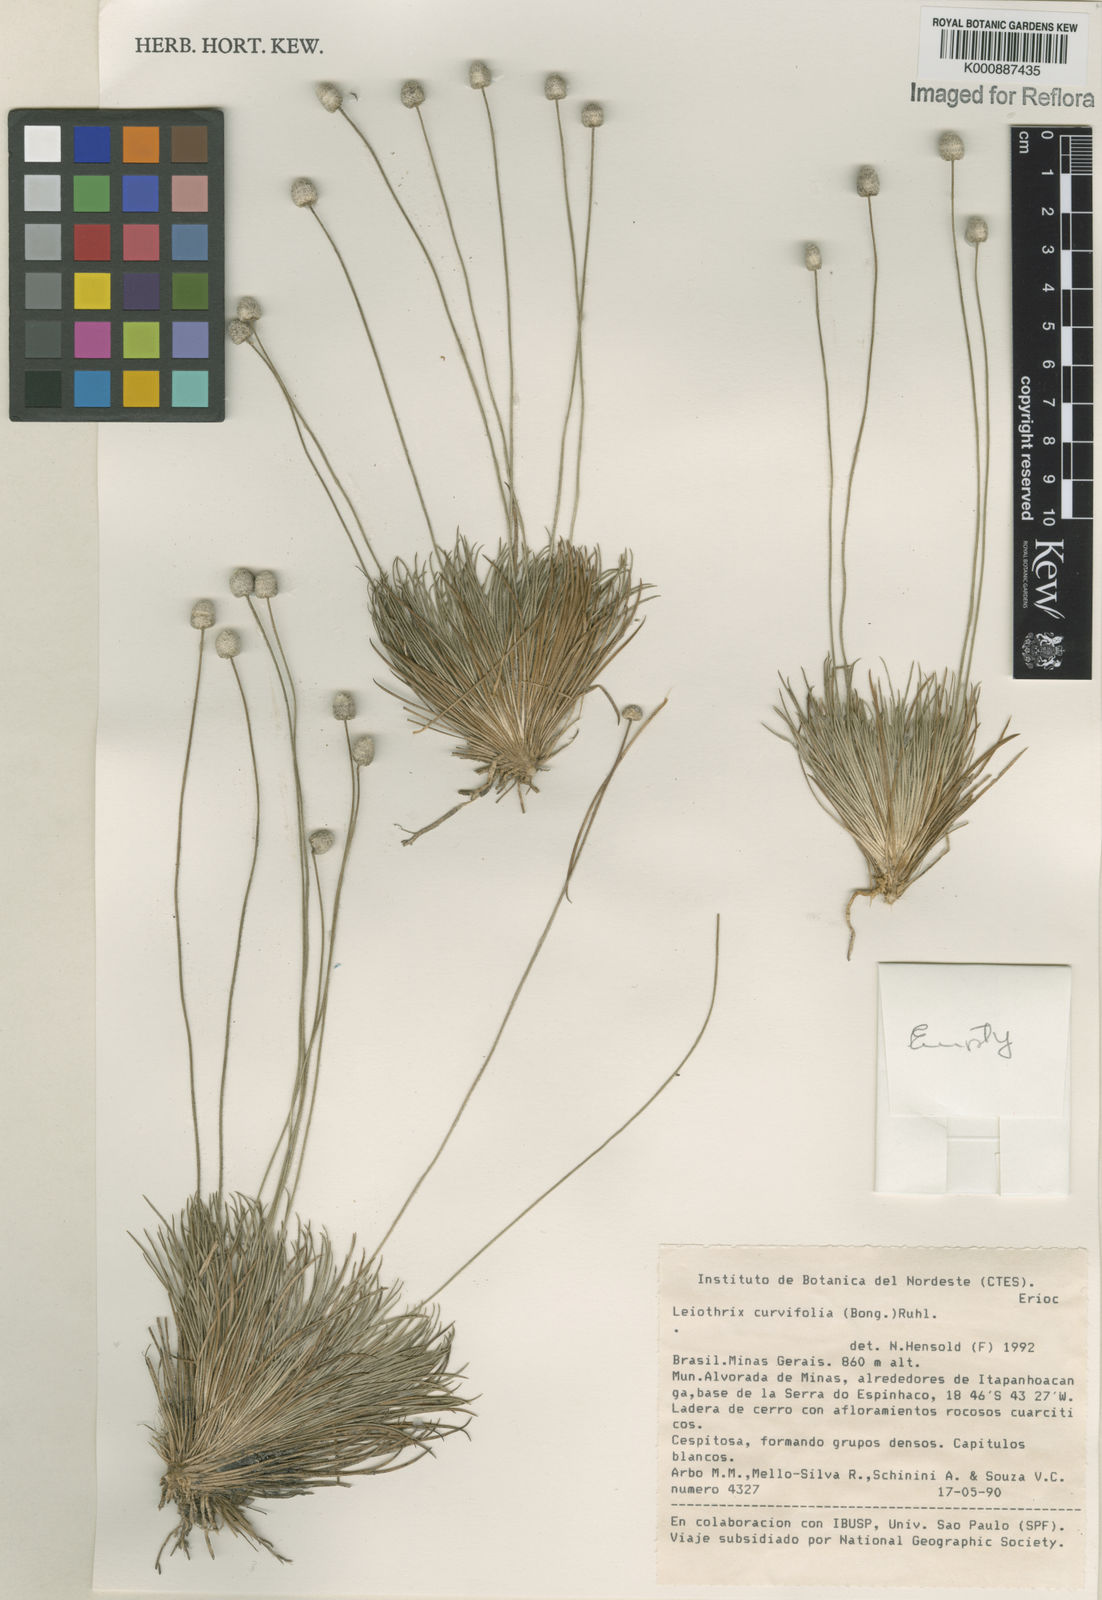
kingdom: Plantae
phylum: Tracheophyta
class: Liliopsida
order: Poales
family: Eriocaulaceae
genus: Leiothrix
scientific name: Leiothrix curvifolia
